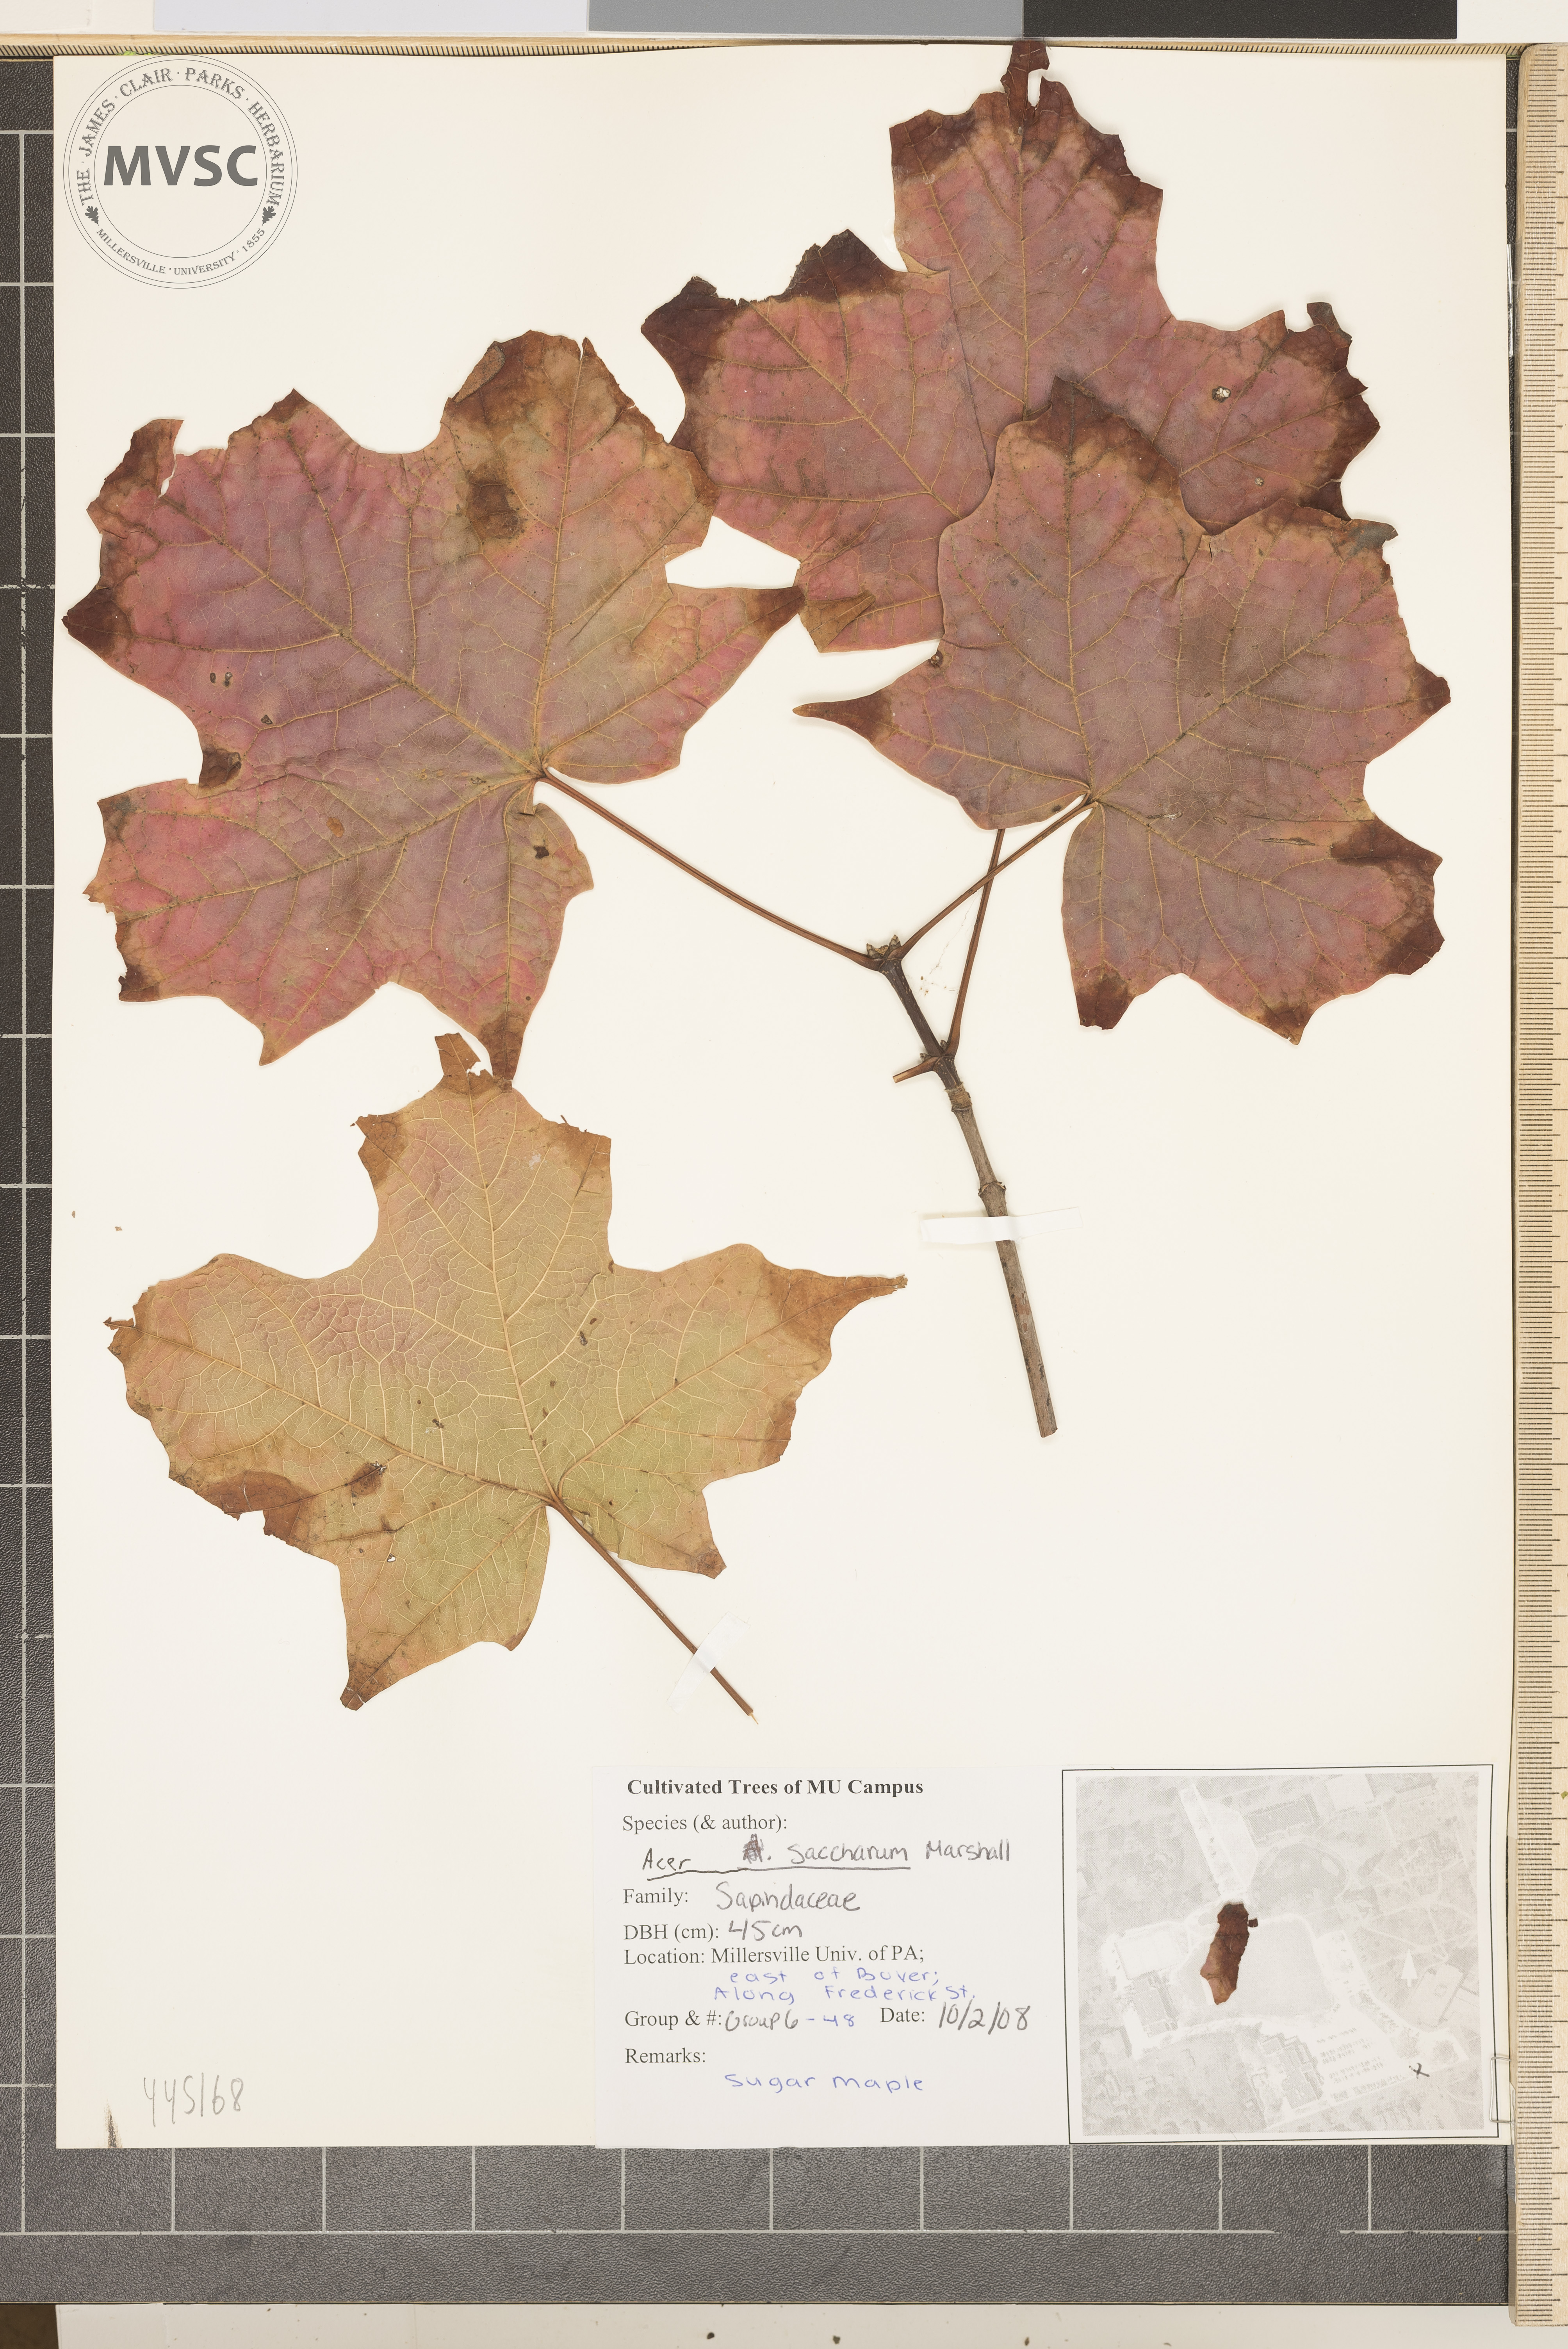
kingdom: Plantae
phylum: Tracheophyta
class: Magnoliopsida
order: Sapindales
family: Sapindaceae
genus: Acer
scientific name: Acer saccharum
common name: Sugar maple
